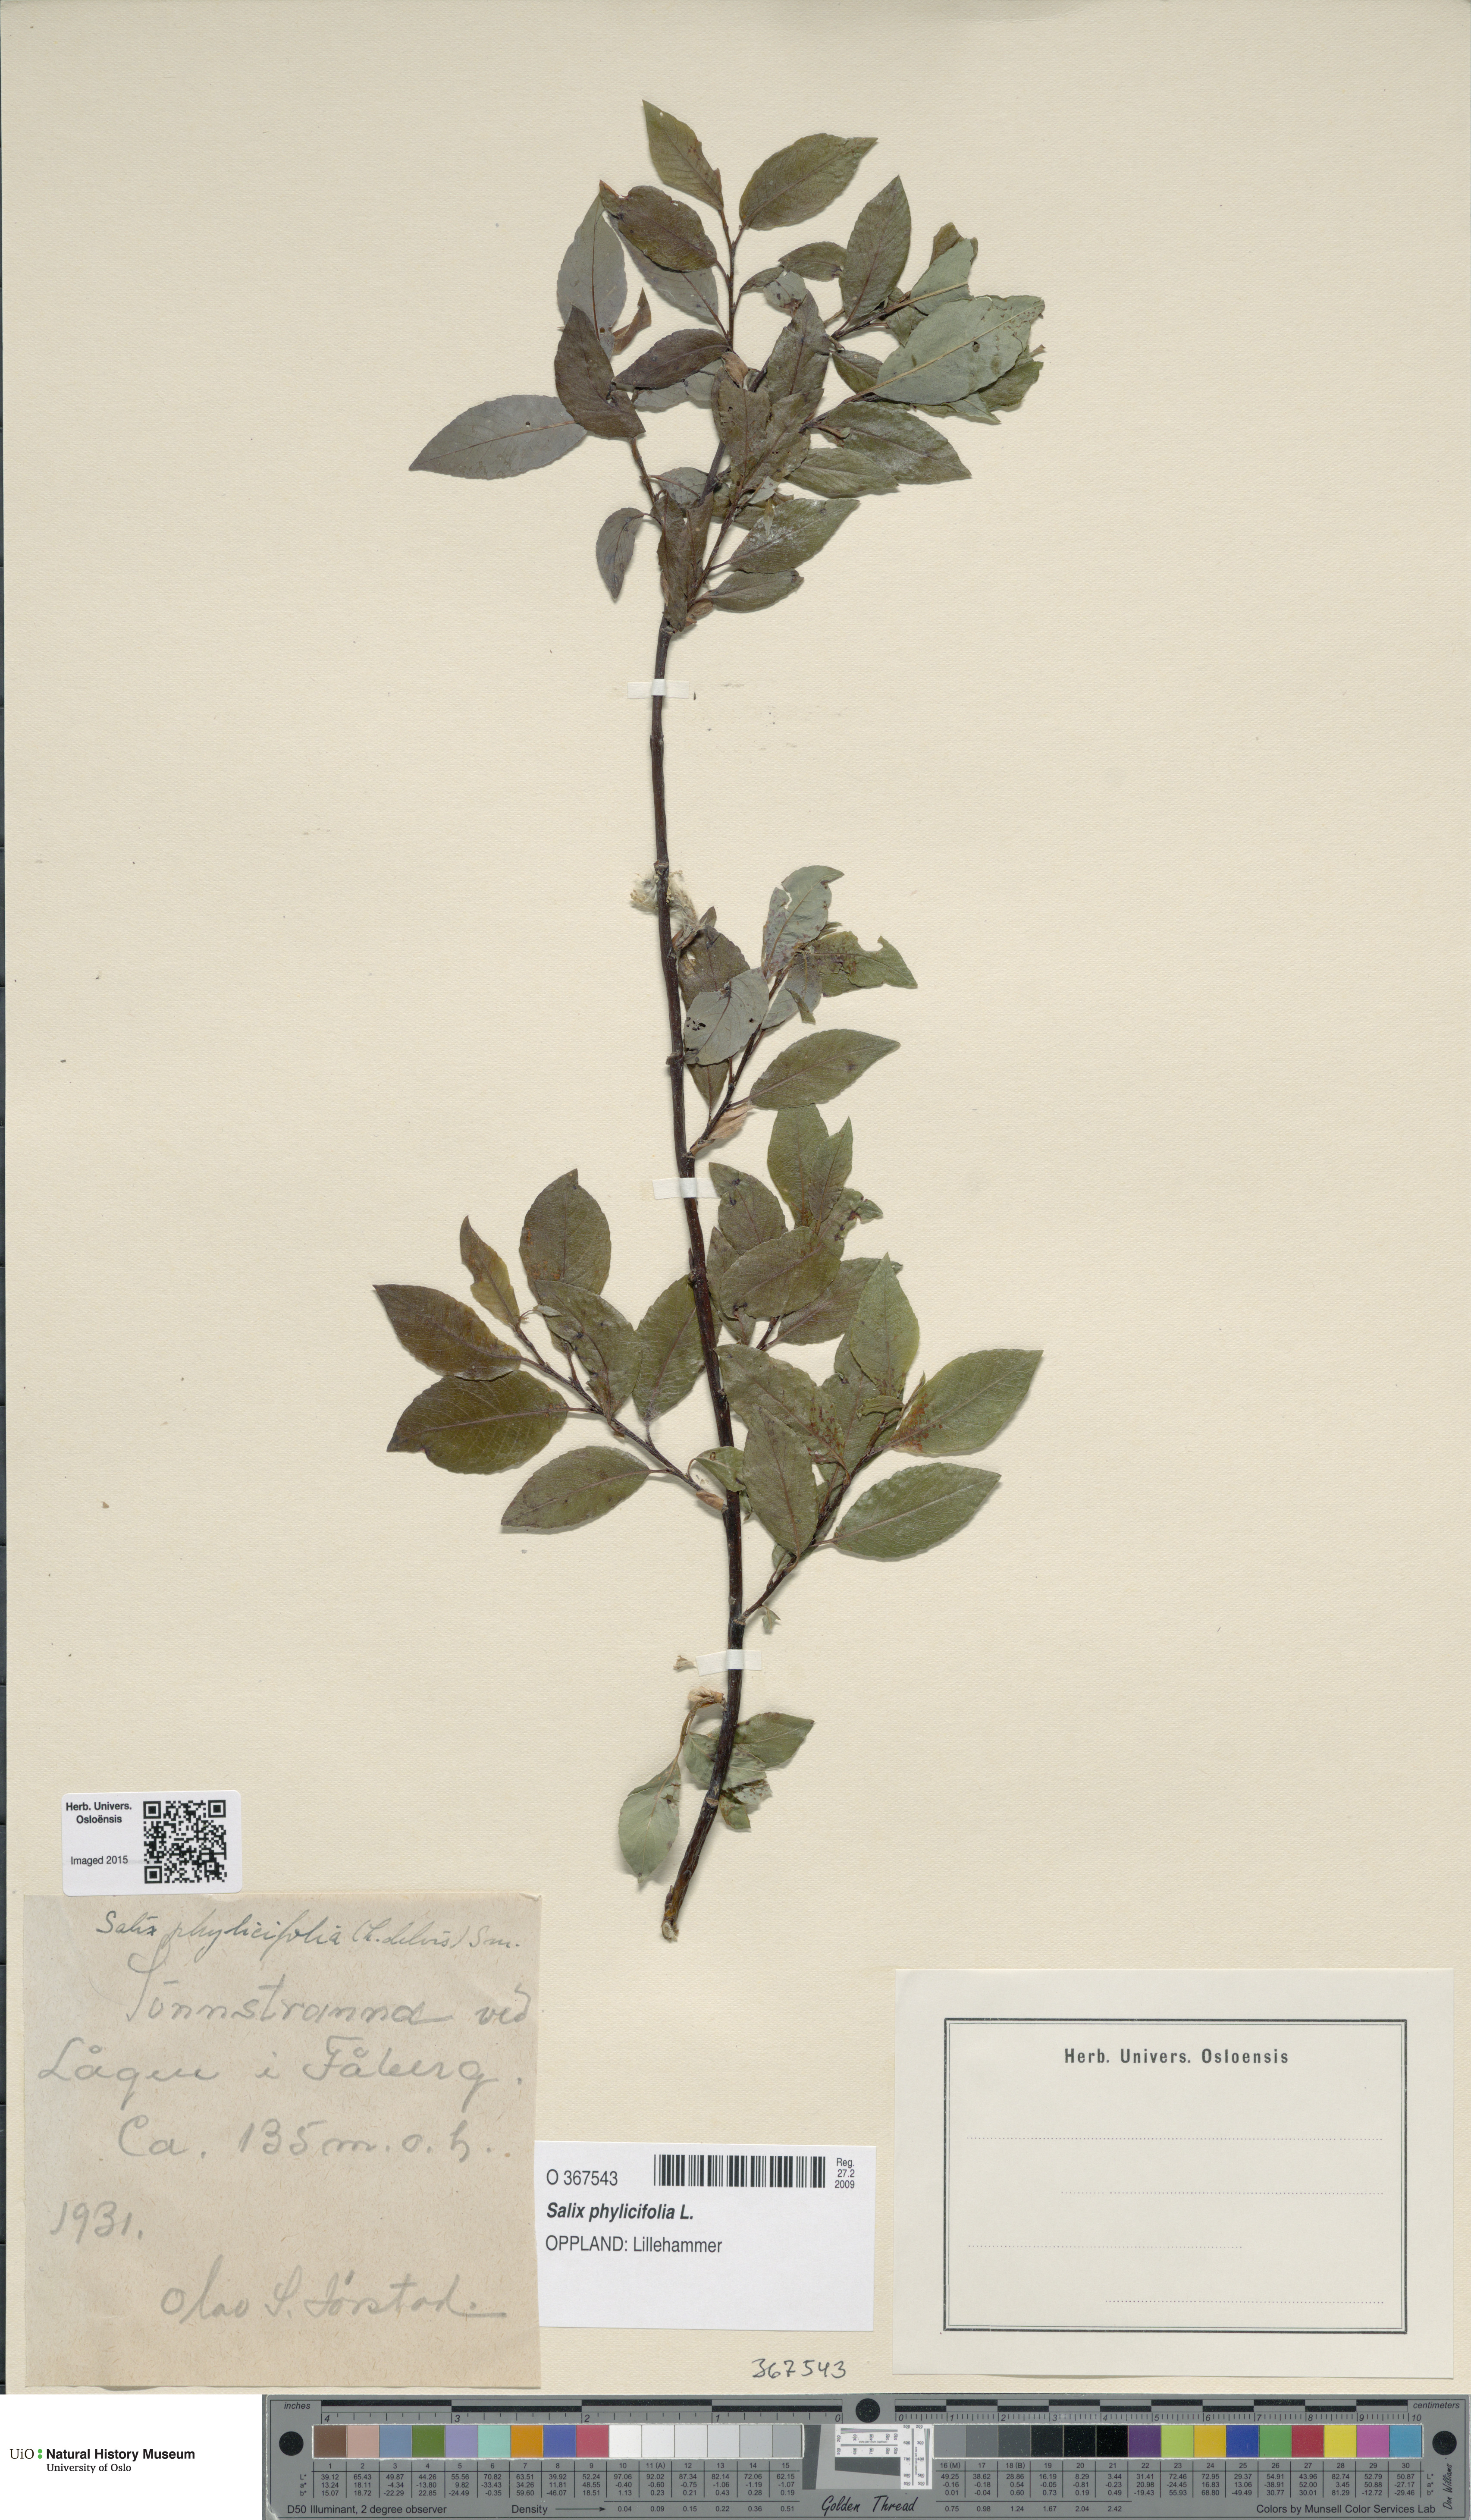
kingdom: Plantae
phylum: Tracheophyta
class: Magnoliopsida
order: Malpighiales
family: Salicaceae
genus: Salix
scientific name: Salix phylicifolia
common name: Tea-leaved willow
